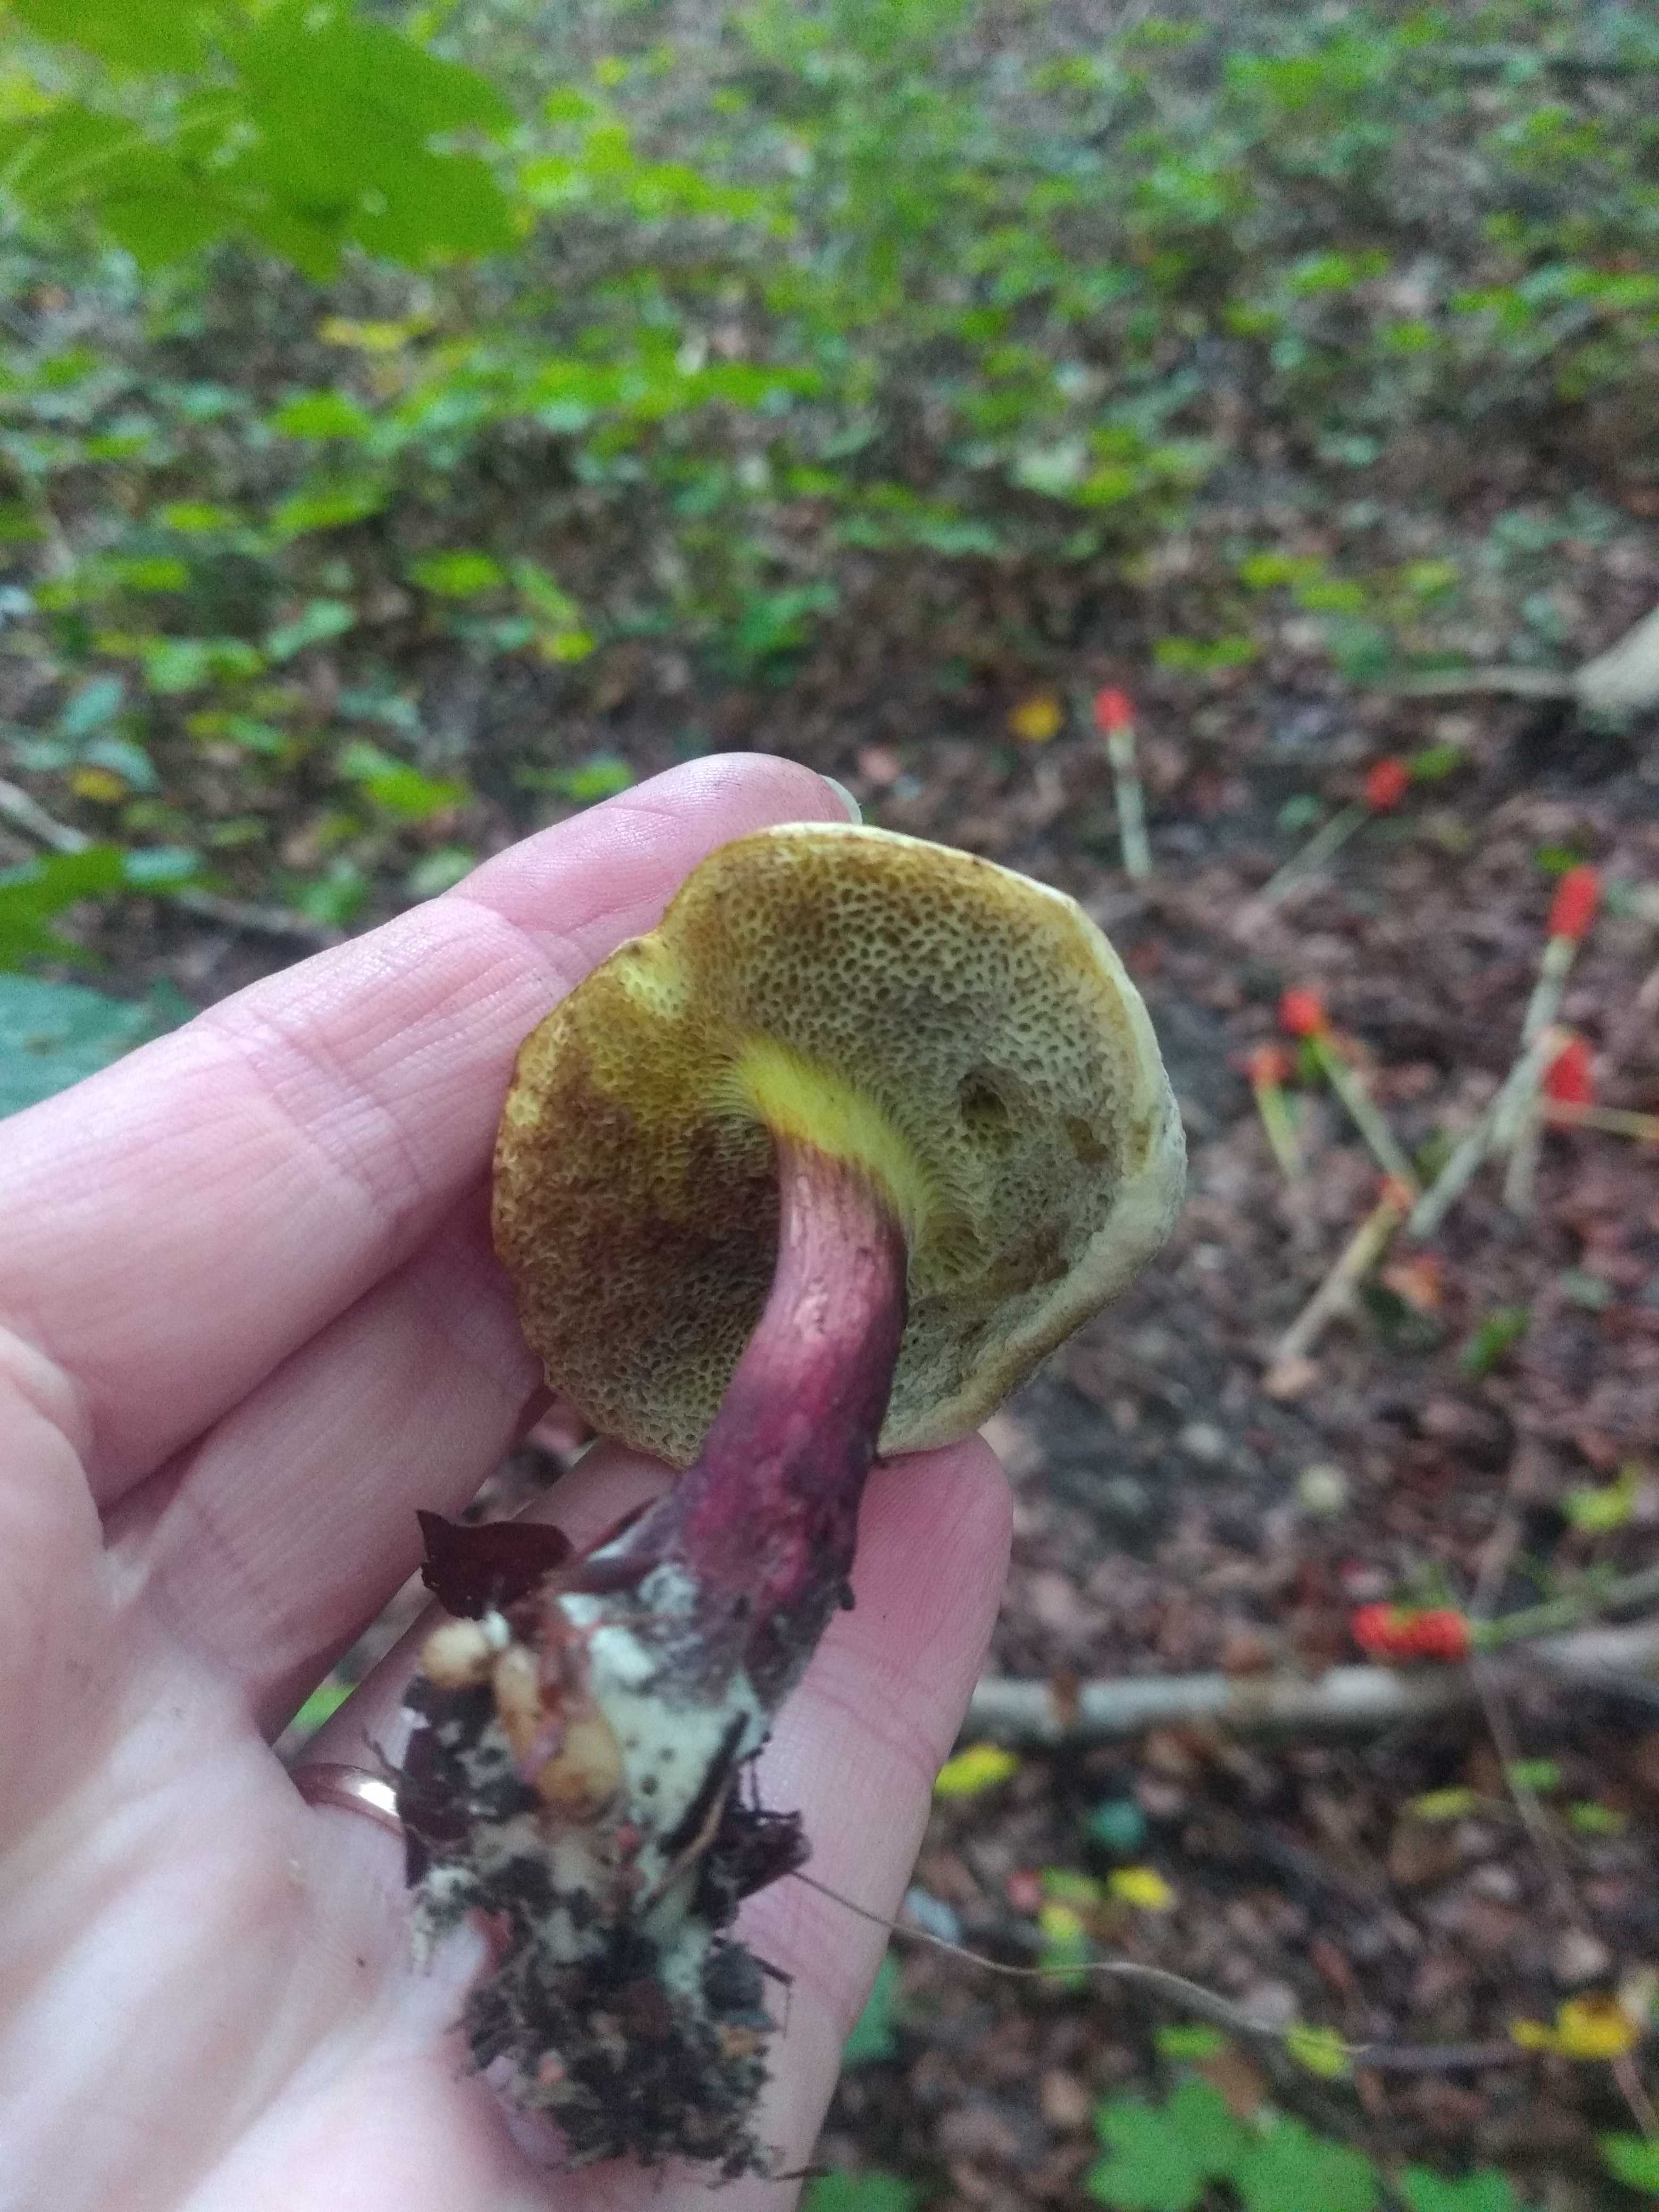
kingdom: Fungi
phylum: Basidiomycota
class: Agaricomycetes
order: Boletales
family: Boletaceae
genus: Xerocomellus
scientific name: Xerocomellus chrysenteron
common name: rødsprukken rørhat
